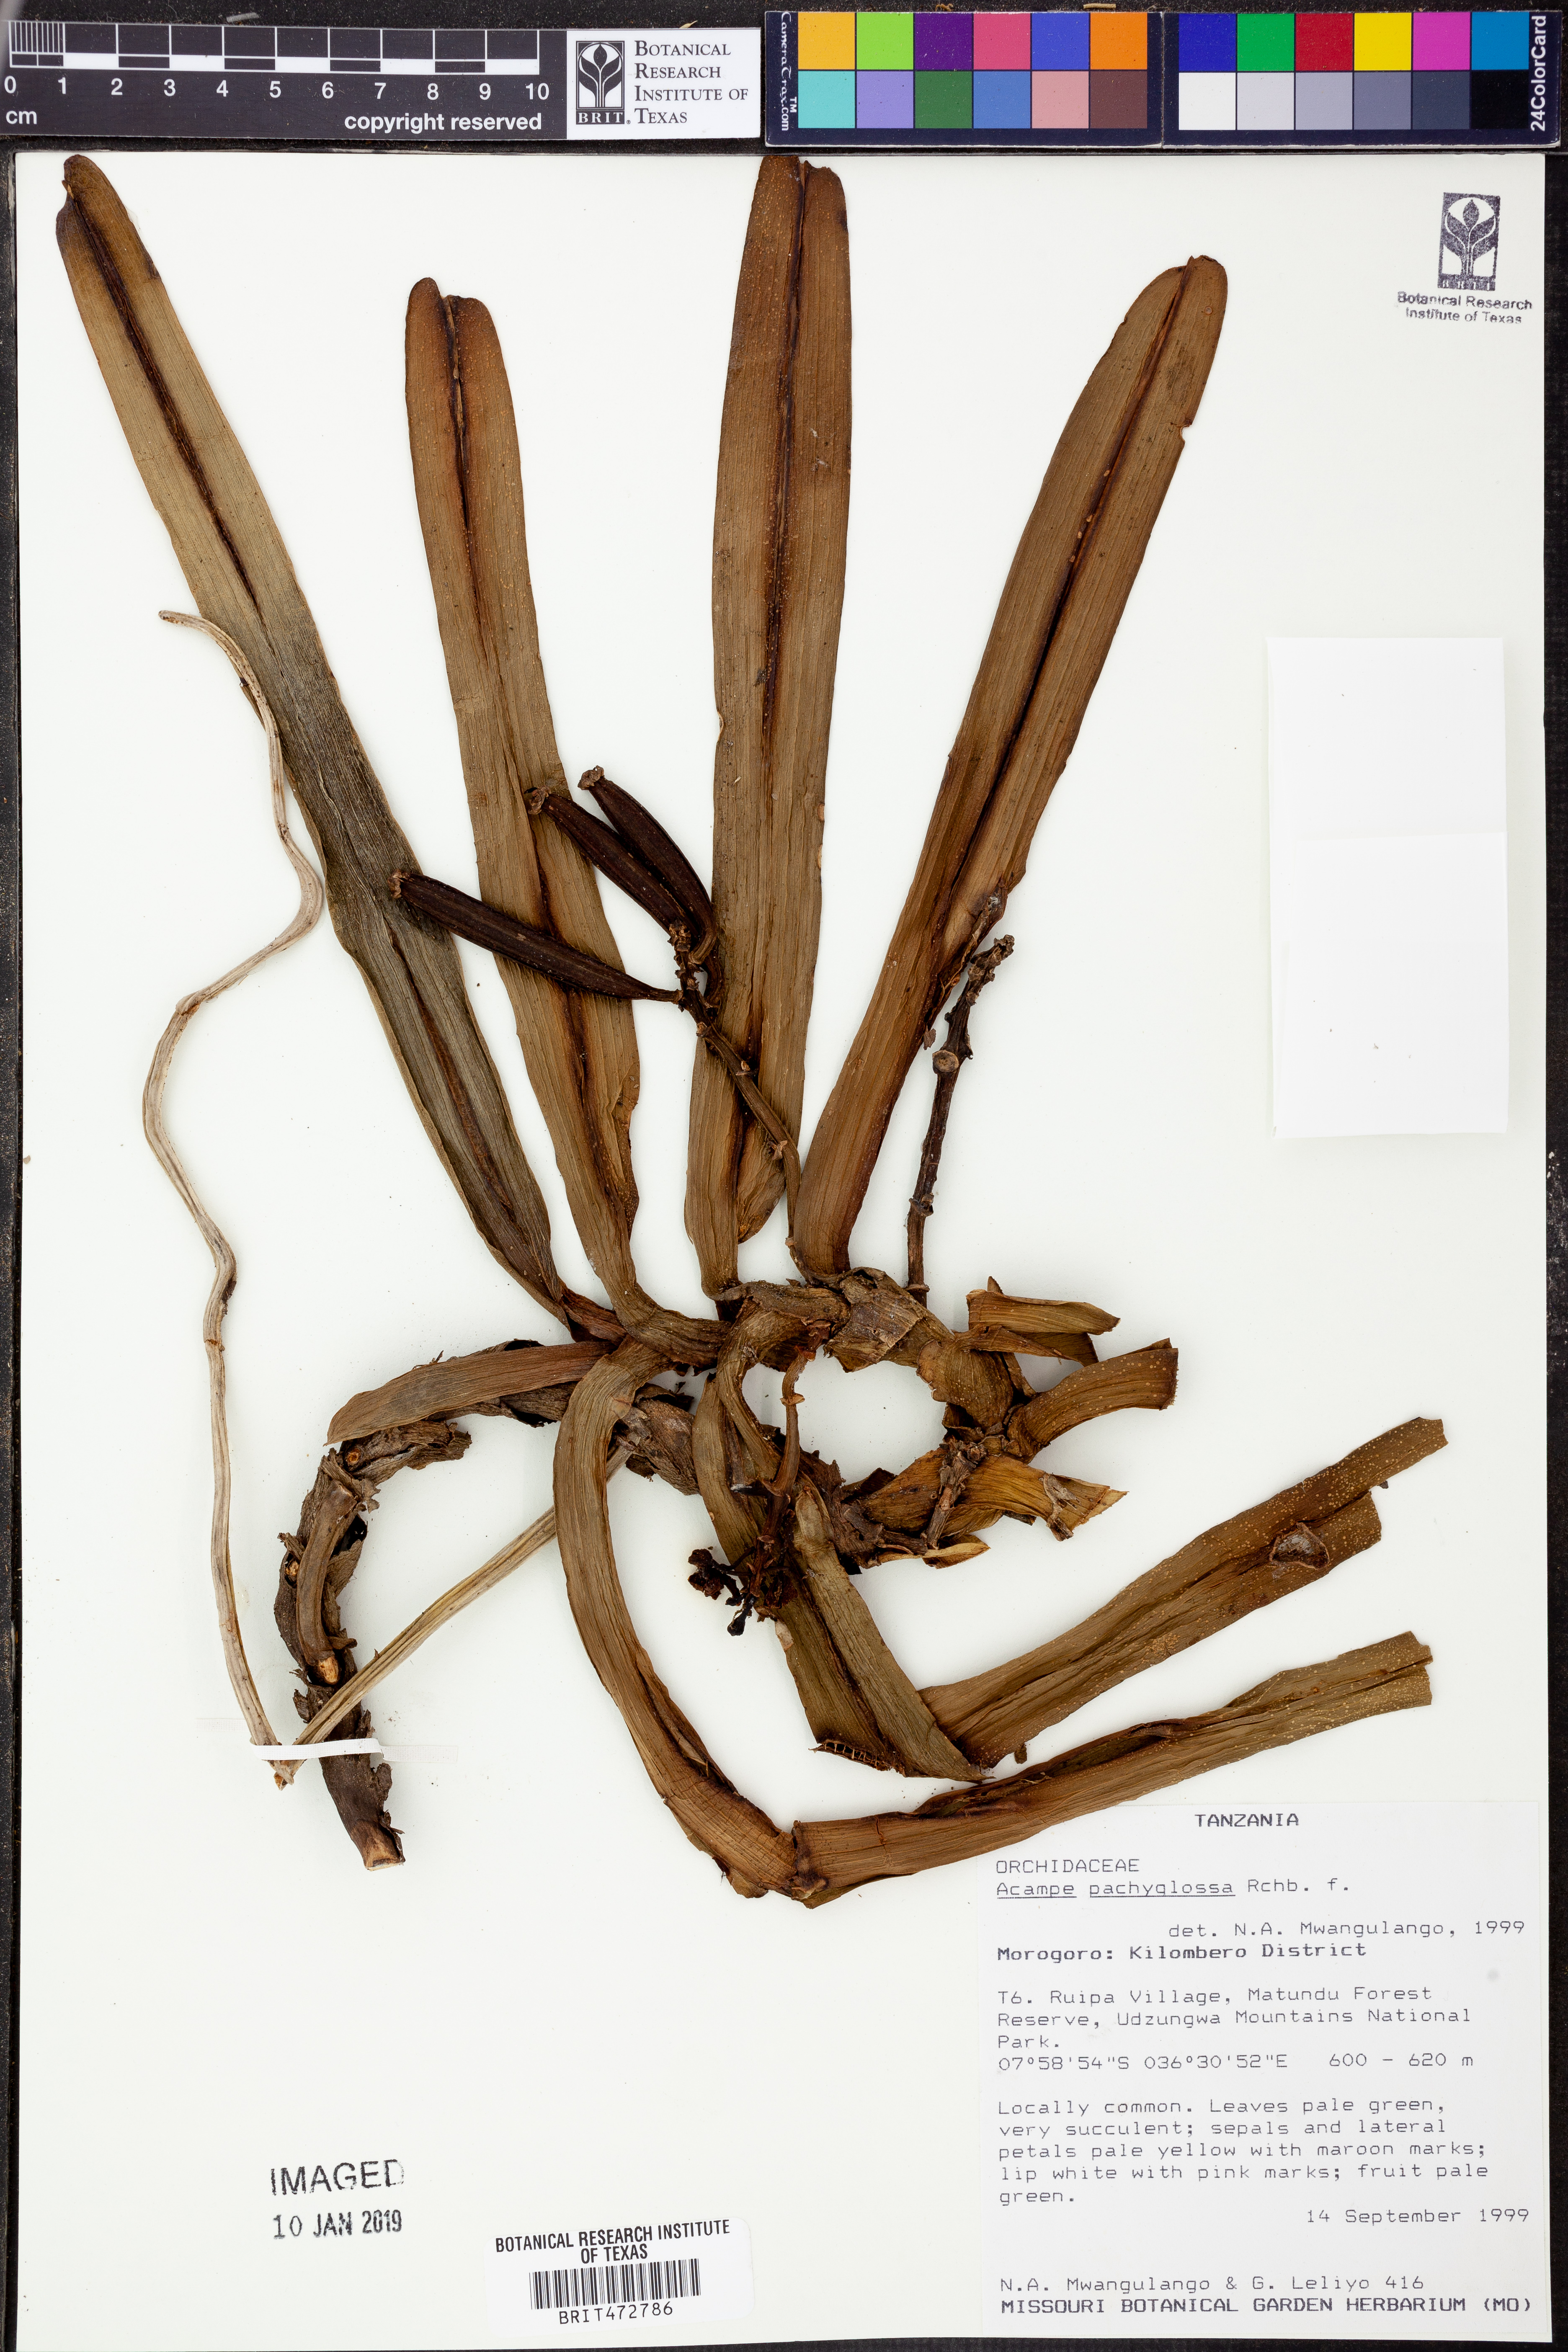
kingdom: Plantae
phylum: Tracheophyta
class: Liliopsida
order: Asparagales
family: Orchidaceae
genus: Acampe
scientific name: Acampe pachyglossa
